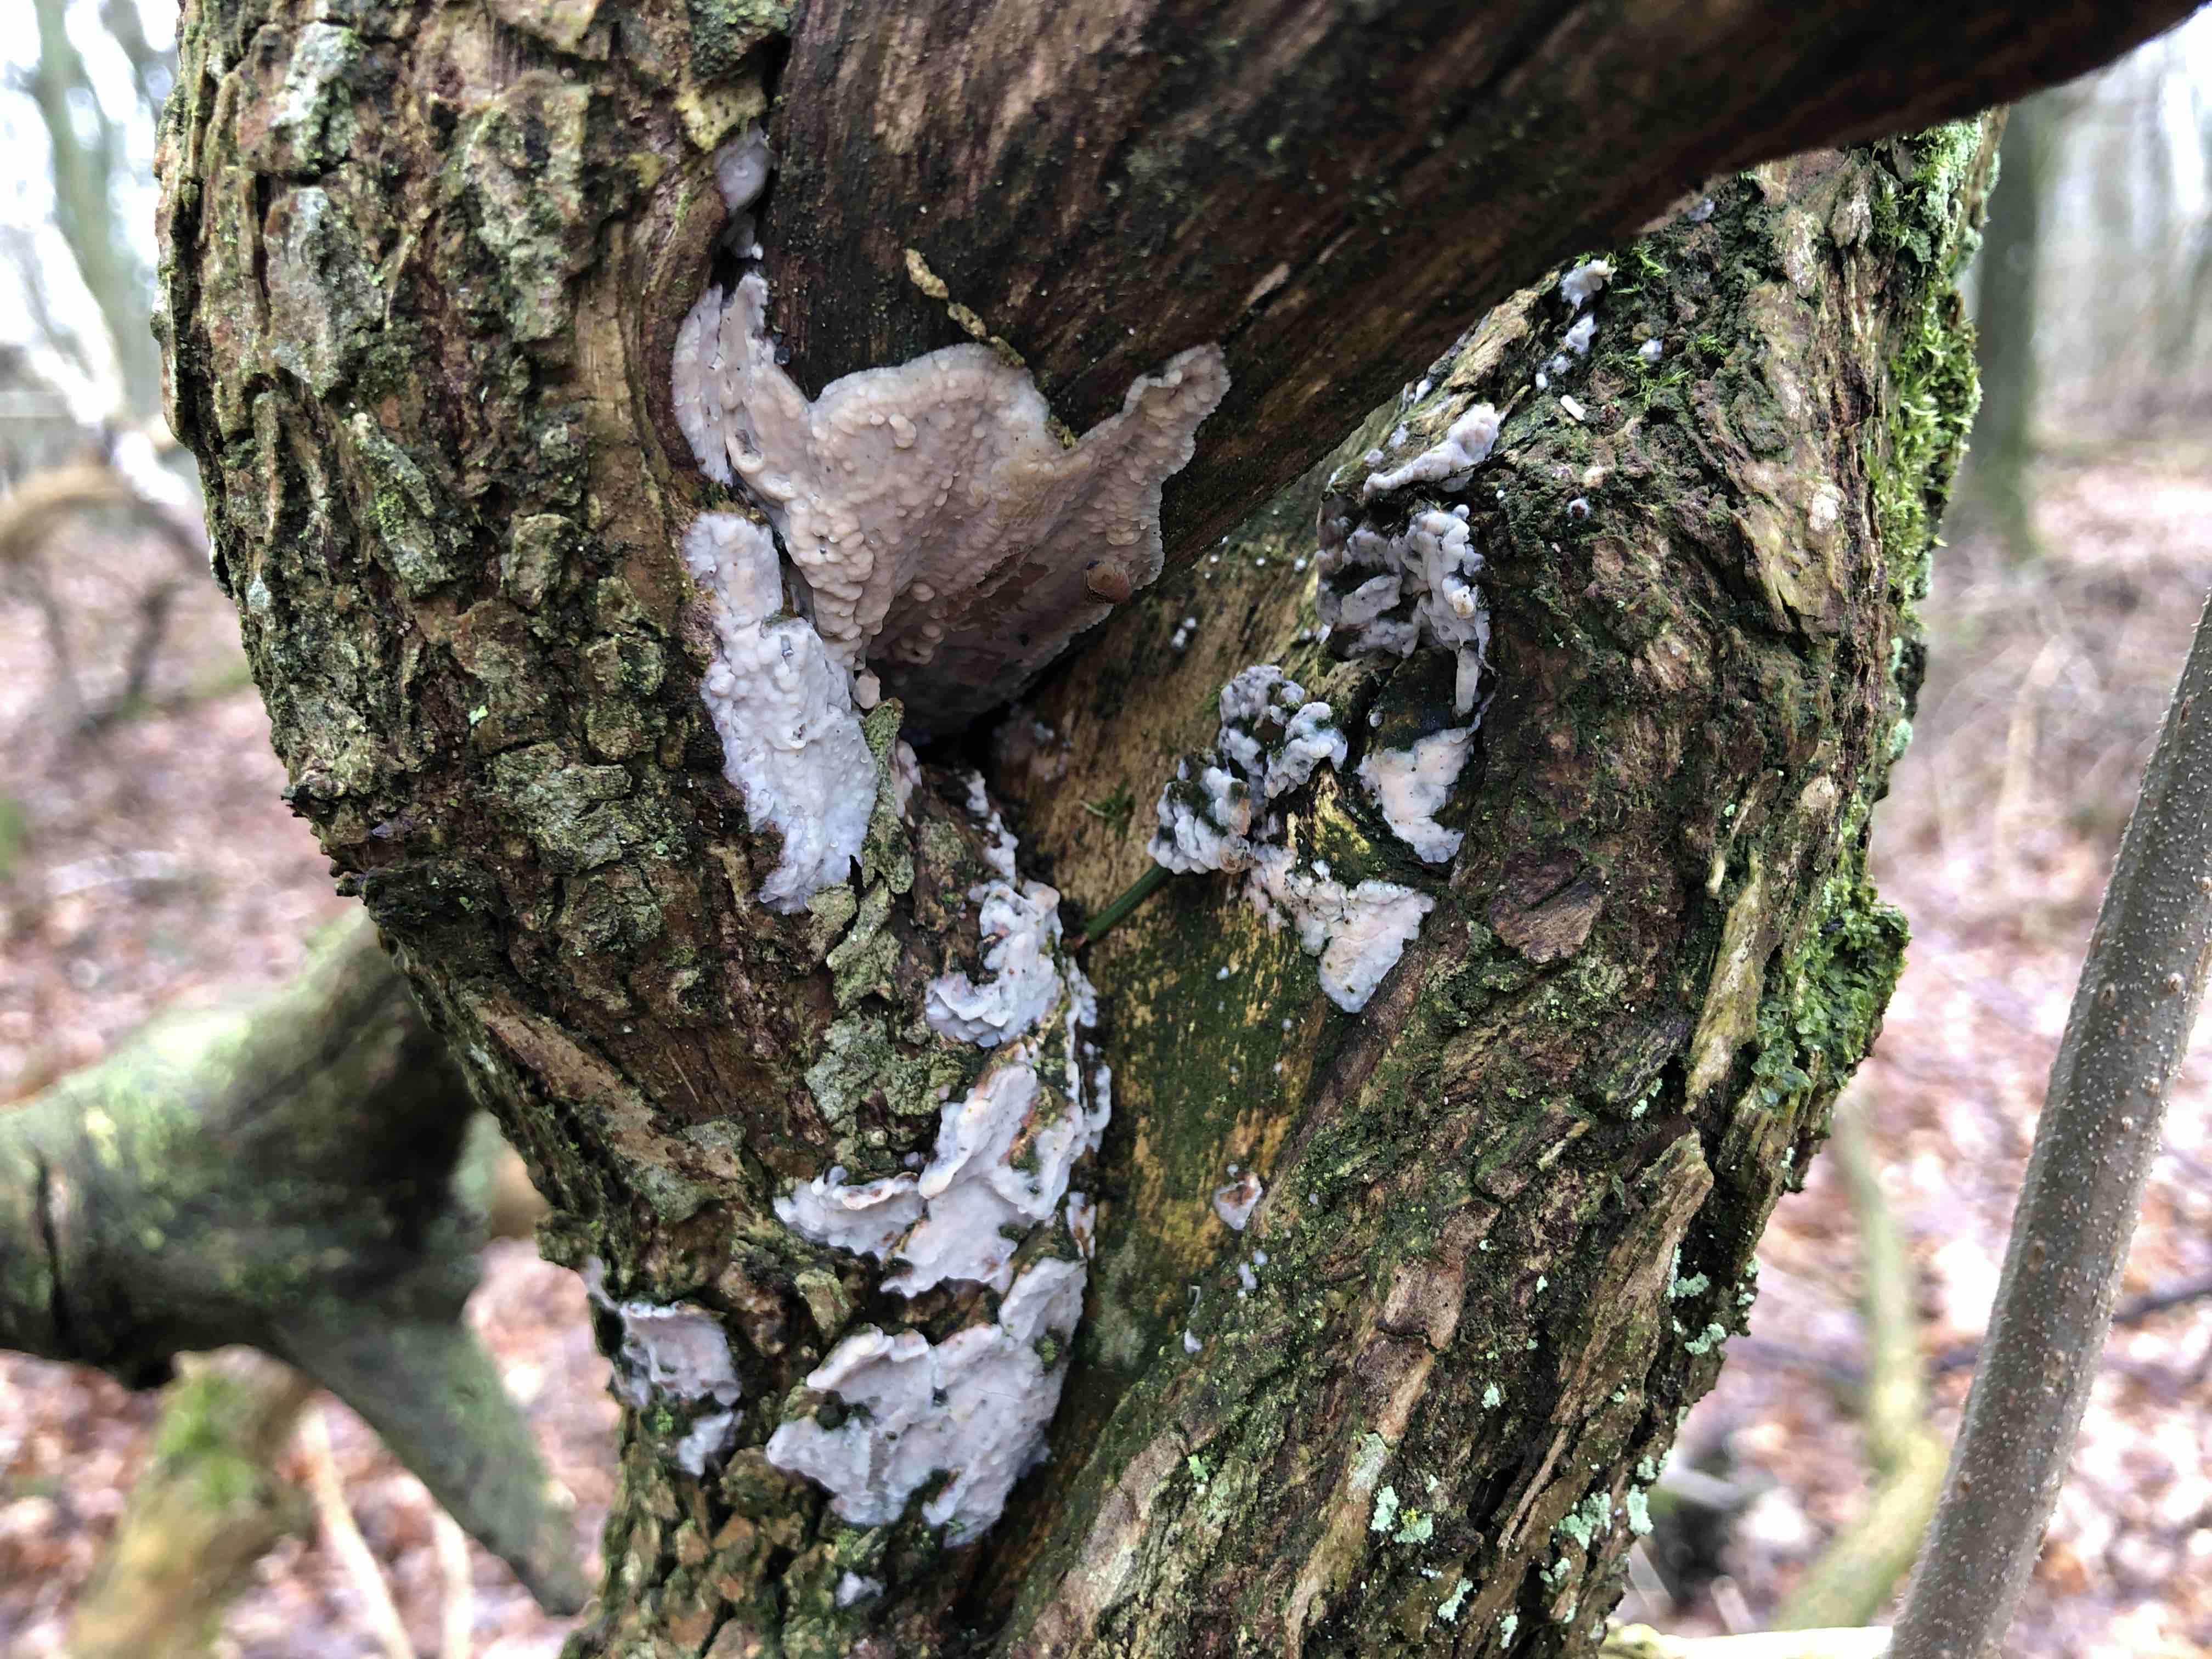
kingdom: Fungi
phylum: Basidiomycota
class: Agaricomycetes
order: Agaricales
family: Radulomycetaceae
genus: Radulomyces
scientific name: Radulomyces confluens
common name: glat naftalinskind
